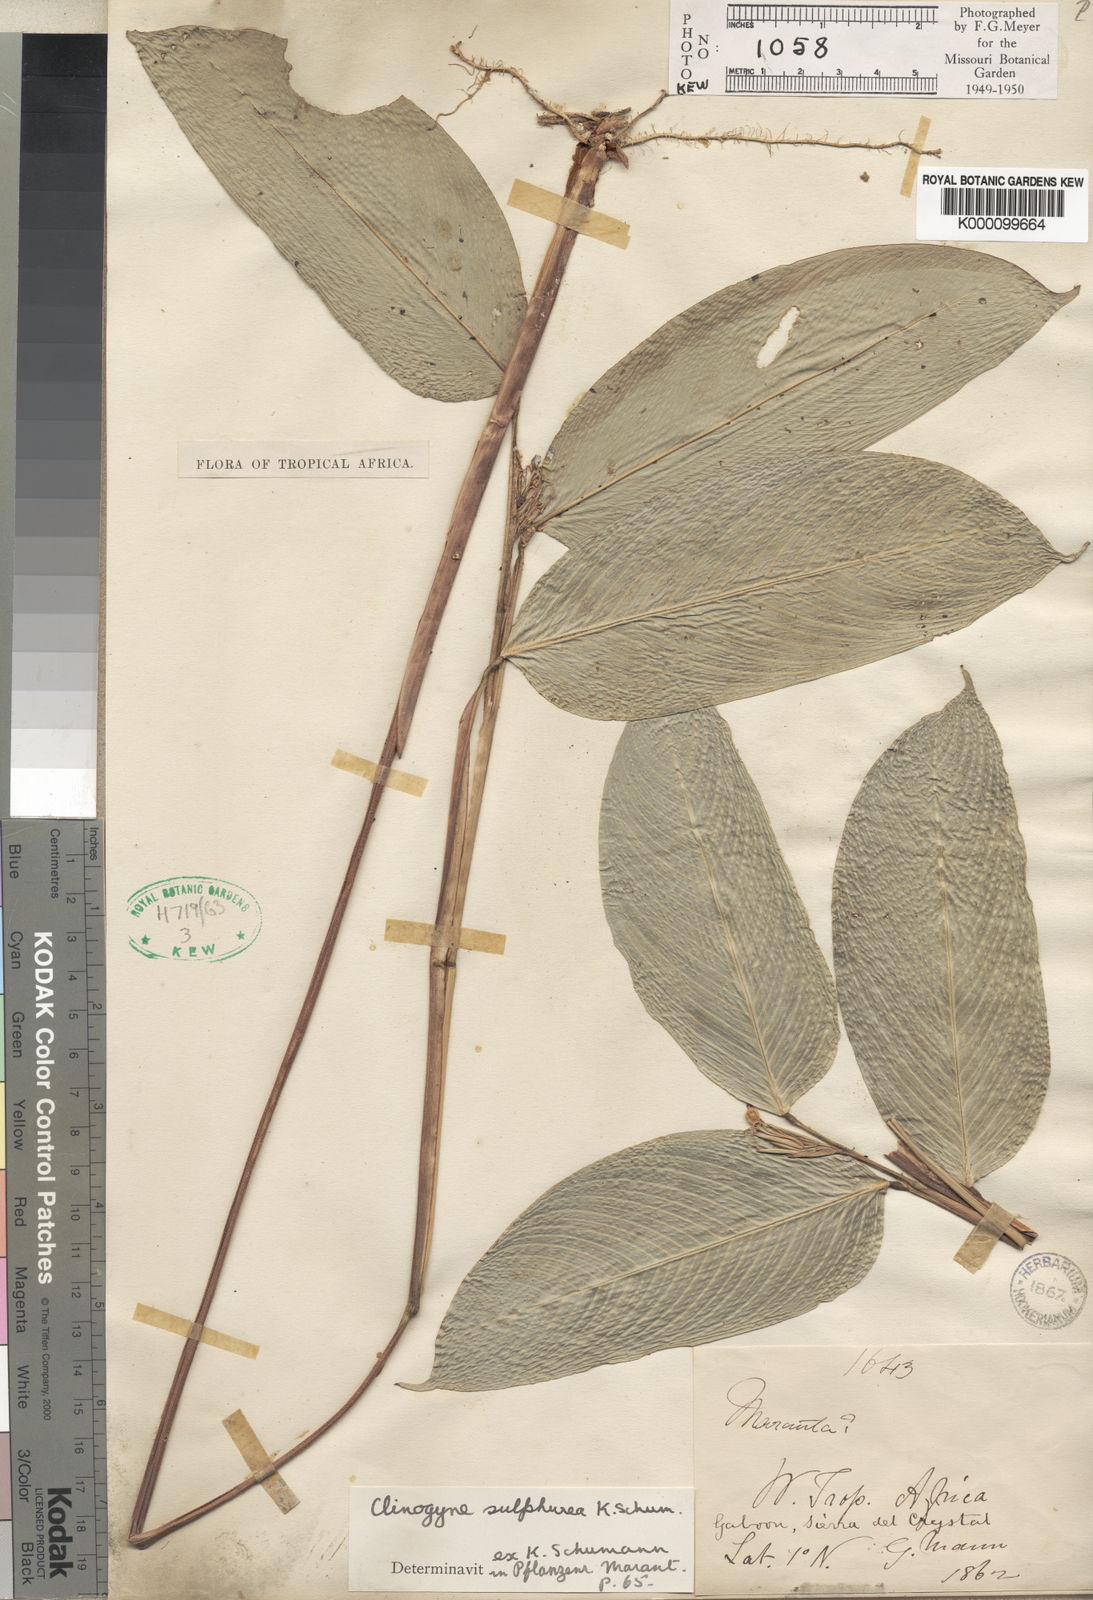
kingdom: Plantae
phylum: Tracheophyta
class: Liliopsida
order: Zingiberales
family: Marantaceae
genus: Marantochloa
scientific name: Marantochloa sulphurea
